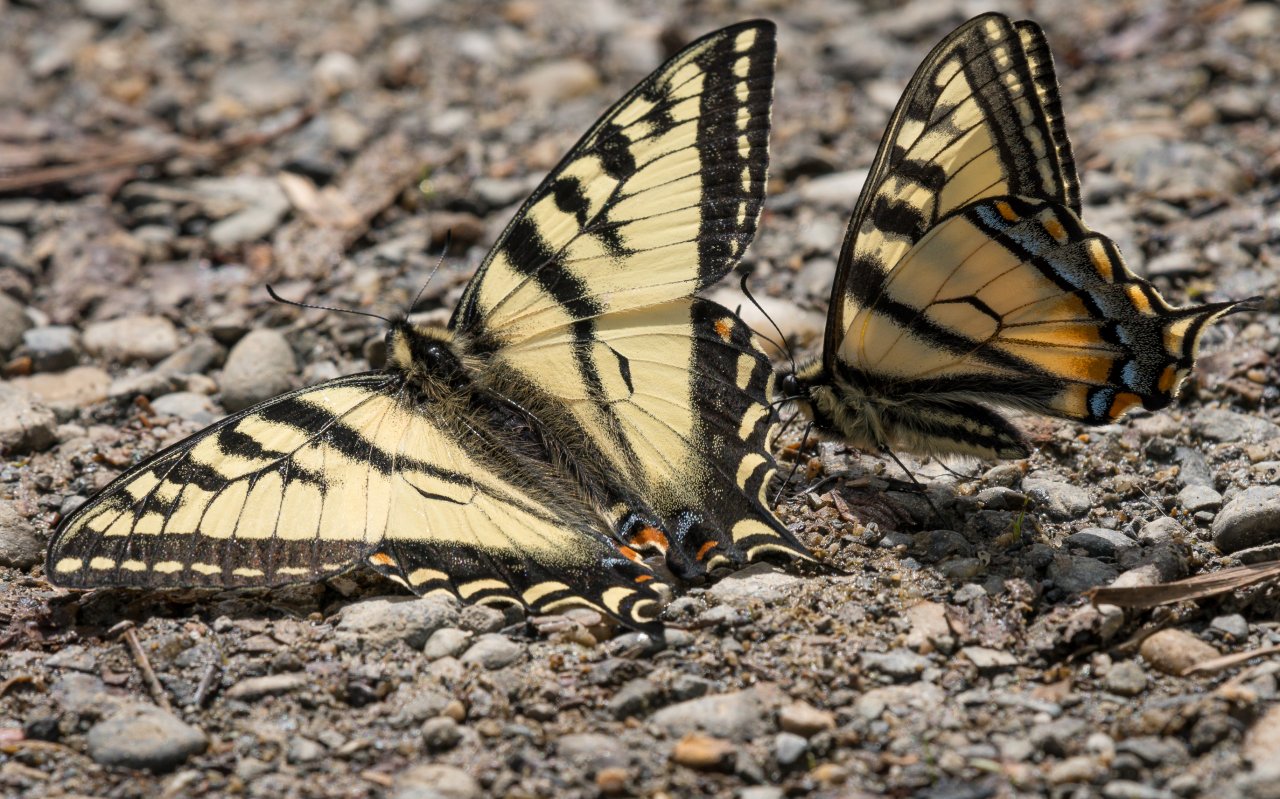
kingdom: Animalia
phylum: Arthropoda
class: Insecta
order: Lepidoptera
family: Papilionidae
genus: Pterourus
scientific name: Pterourus canadensis
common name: Canadian Tiger Swallowtail
